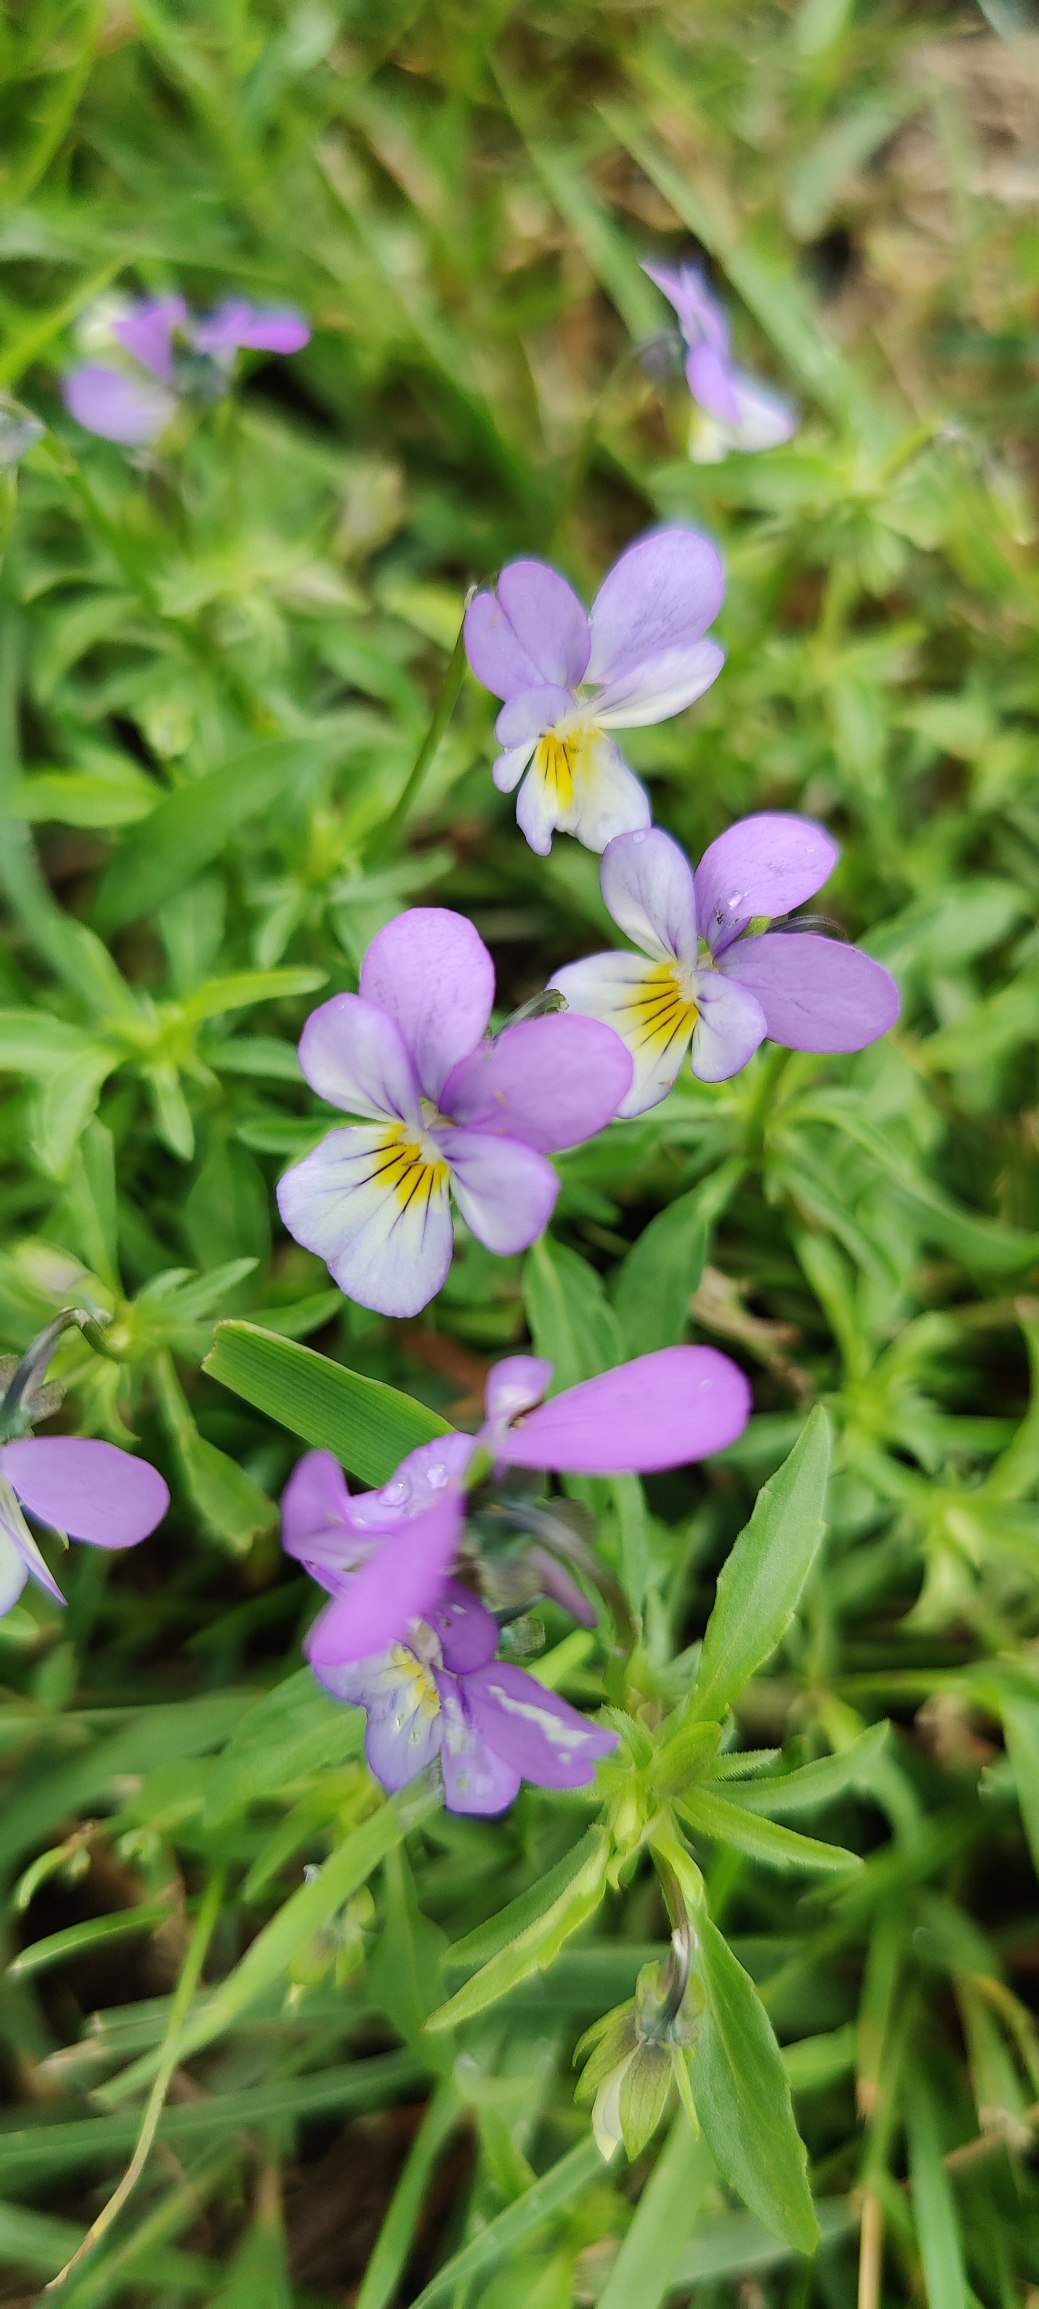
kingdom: Plantae
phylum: Tracheophyta
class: Magnoliopsida
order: Malpighiales
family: Violaceae
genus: Viola
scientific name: Viola tricolor
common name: Stedmoderblomst
